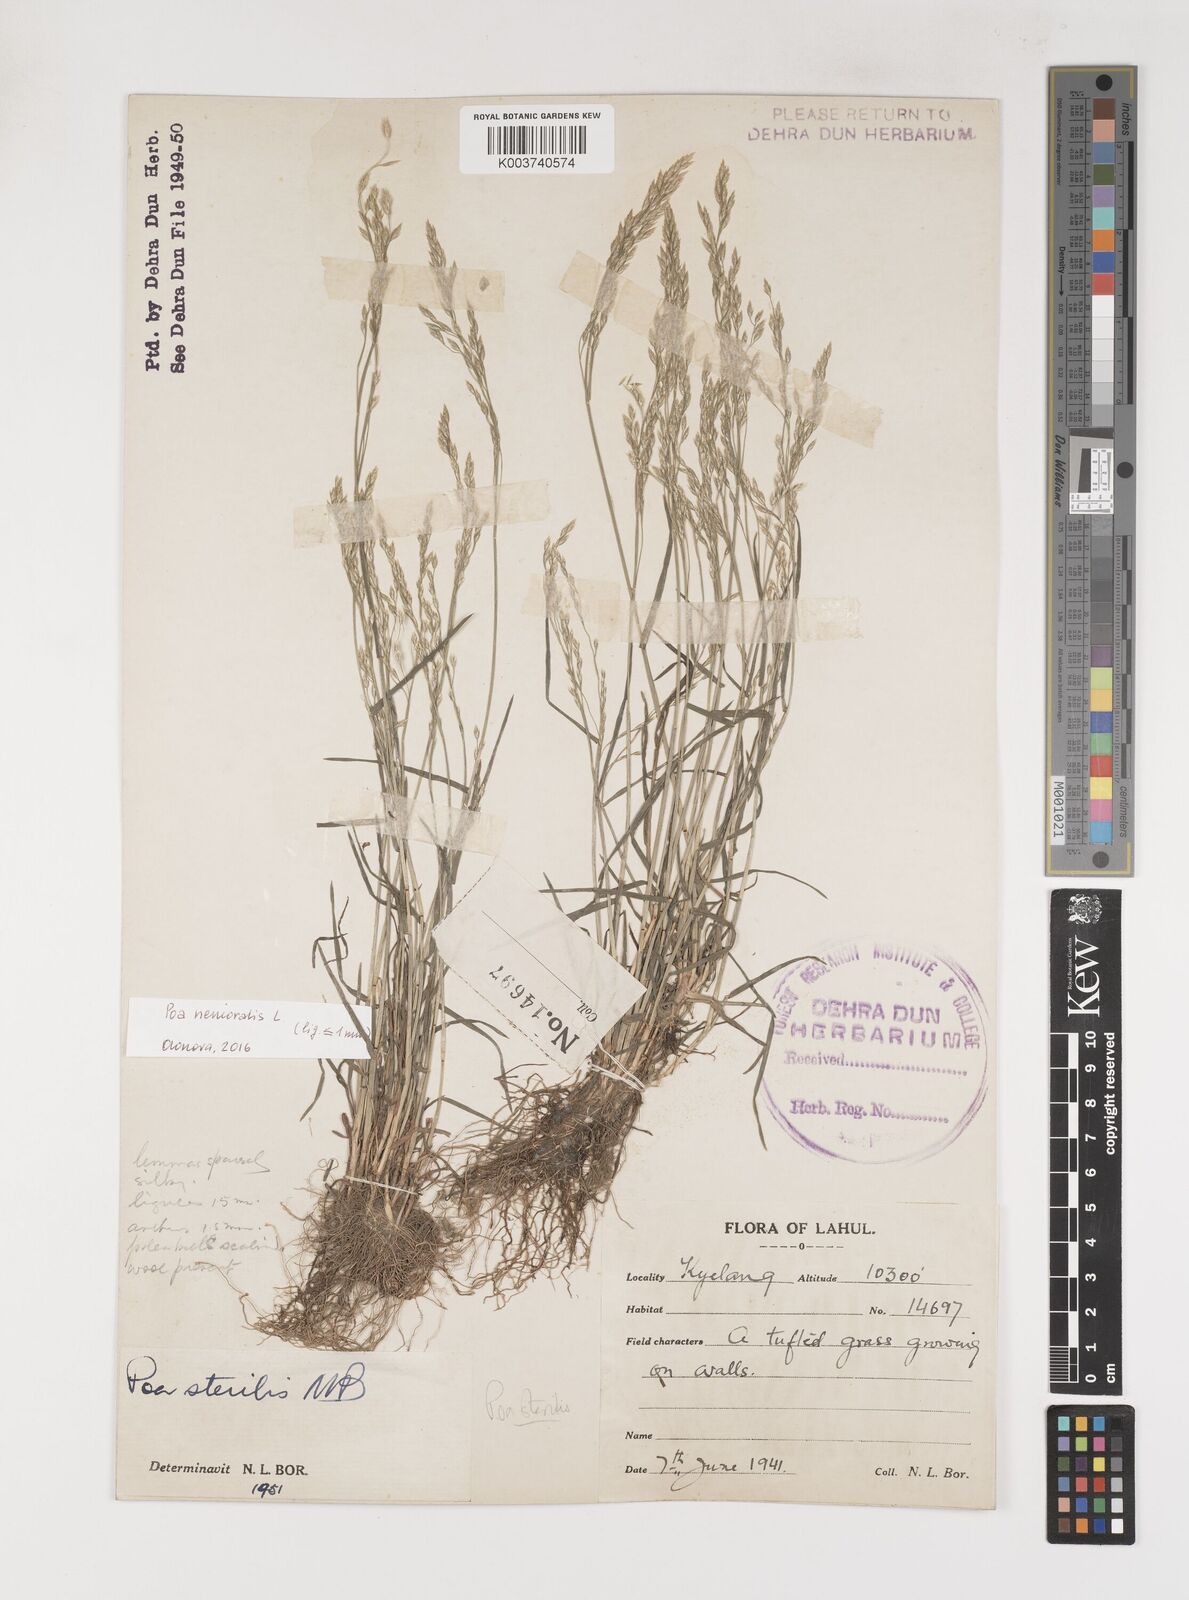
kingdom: Plantae
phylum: Tracheophyta
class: Liliopsida
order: Poales
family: Poaceae
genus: Poa
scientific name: Poa sterilis
